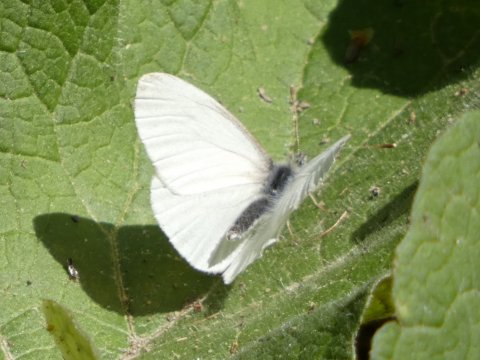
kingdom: Animalia
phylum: Arthropoda
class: Insecta
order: Lepidoptera
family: Pieridae
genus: Pieris
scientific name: Pieris virginiensis
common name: West Virginia White
